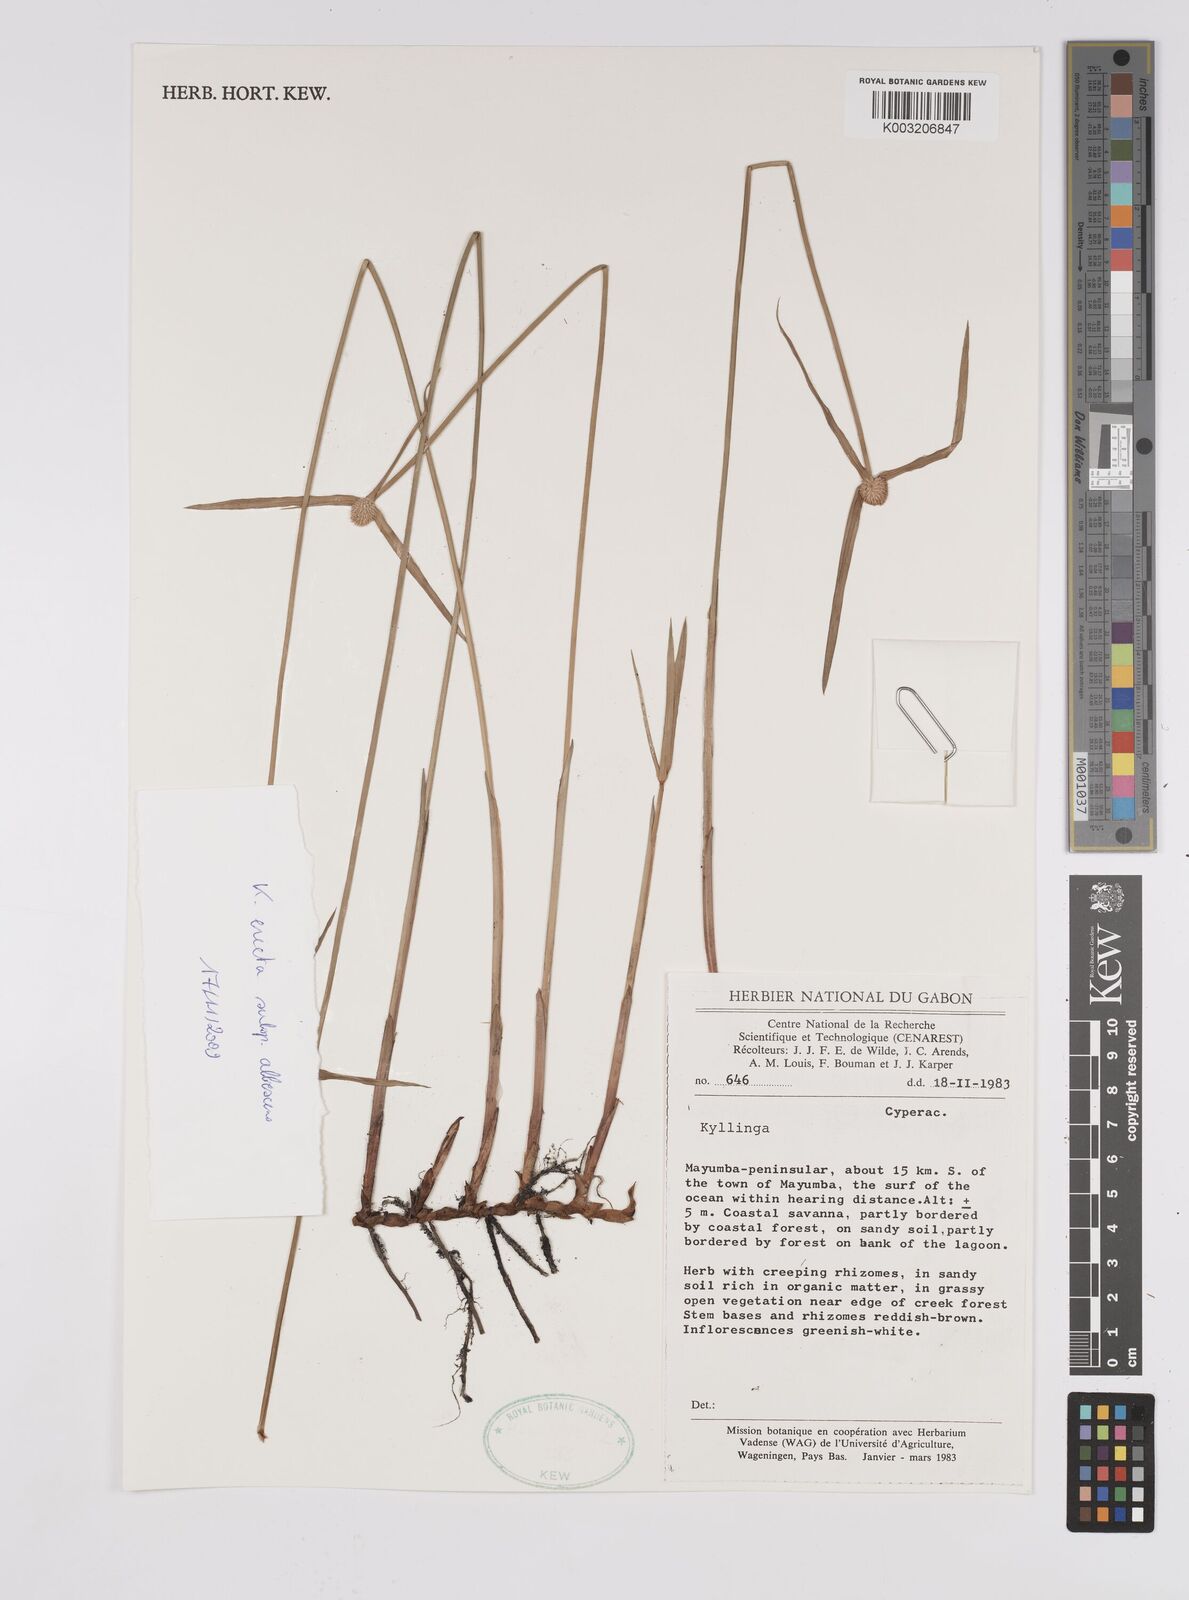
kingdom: Plantae
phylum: Tracheophyta
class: Liliopsida
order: Poales
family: Cyperaceae
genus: Cyperus
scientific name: Cyperus erectus
